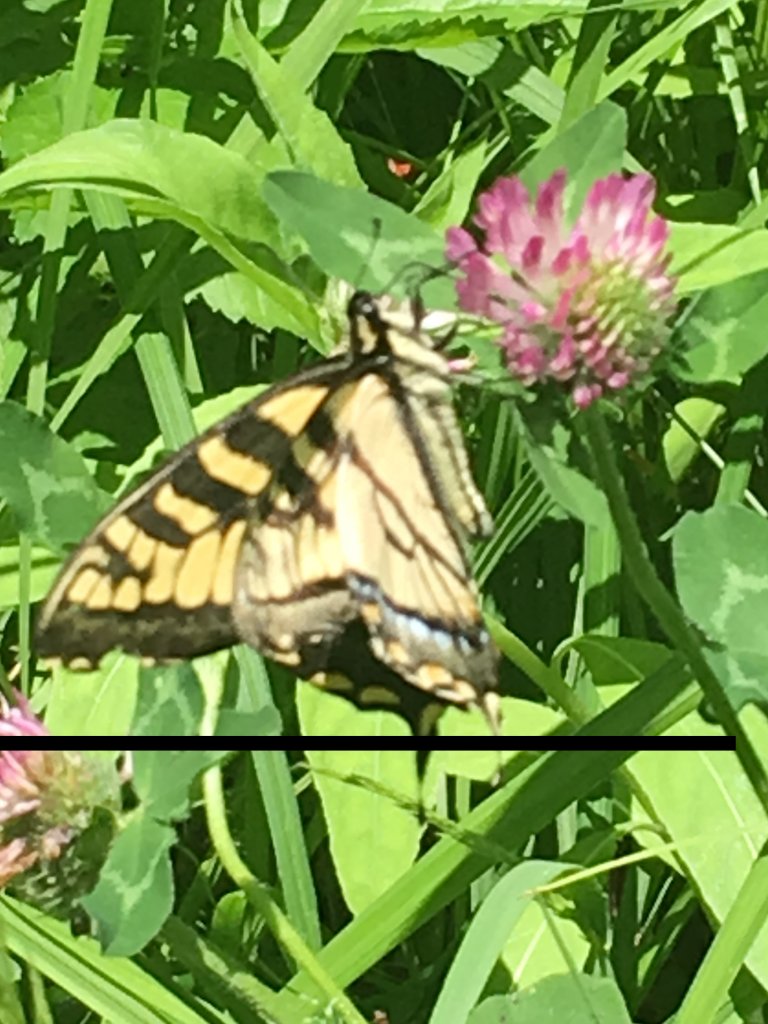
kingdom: Animalia
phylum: Arthropoda
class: Insecta
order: Lepidoptera
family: Papilionidae
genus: Pterourus
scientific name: Pterourus canadensis
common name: Canadian Tiger Swallowtail
